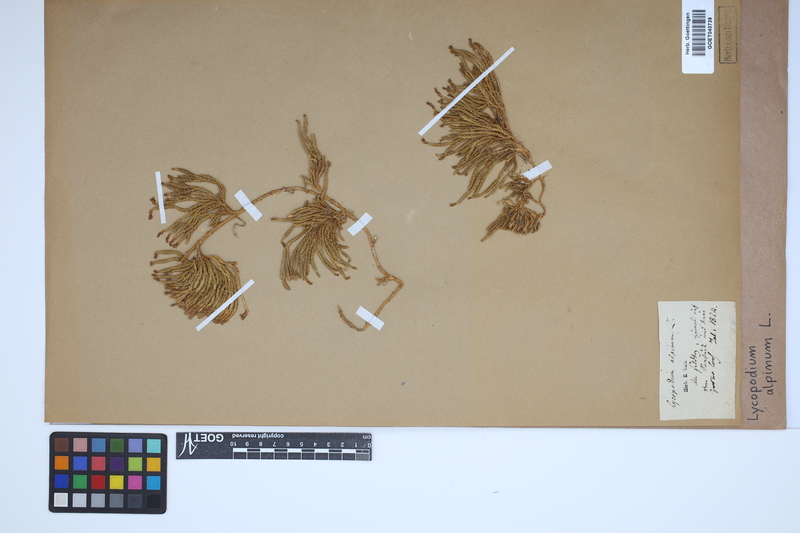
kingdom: Plantae
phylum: Tracheophyta
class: Lycopodiopsida
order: Lycopodiales
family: Lycopodiaceae
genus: Diphasiastrum
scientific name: Diphasiastrum alpinum
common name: Alpine clubmoss
